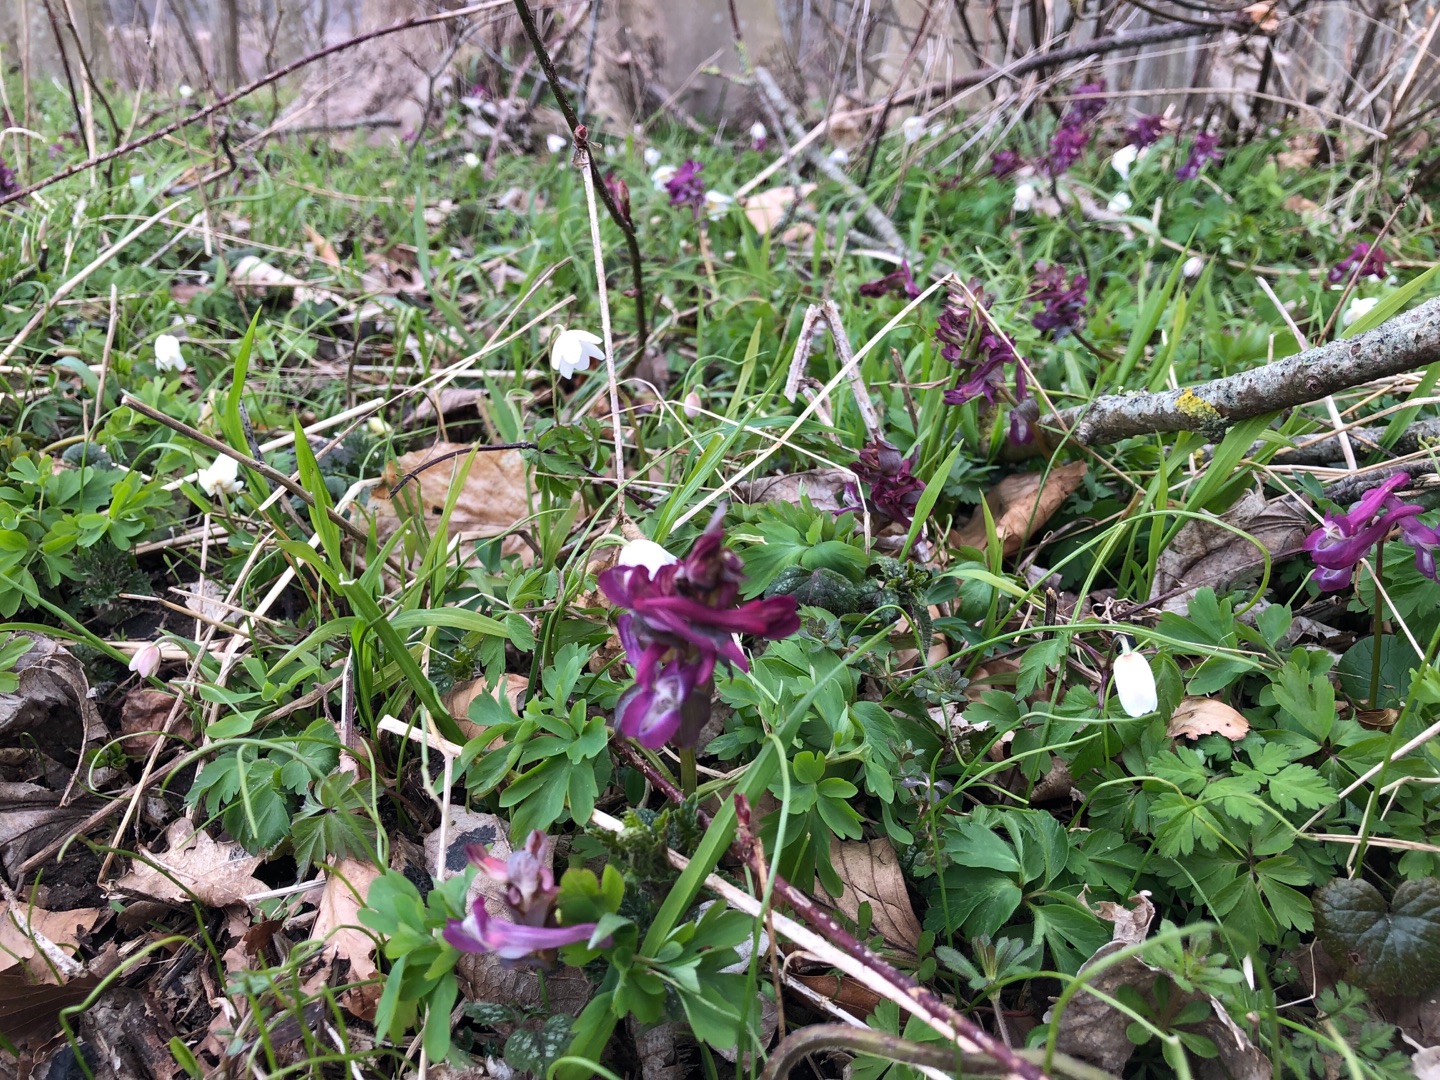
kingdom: Plantae
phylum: Tracheophyta
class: Magnoliopsida
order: Ranunculales
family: Papaveraceae
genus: Corydalis
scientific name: Corydalis cava
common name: Hulrodet lærkespore
